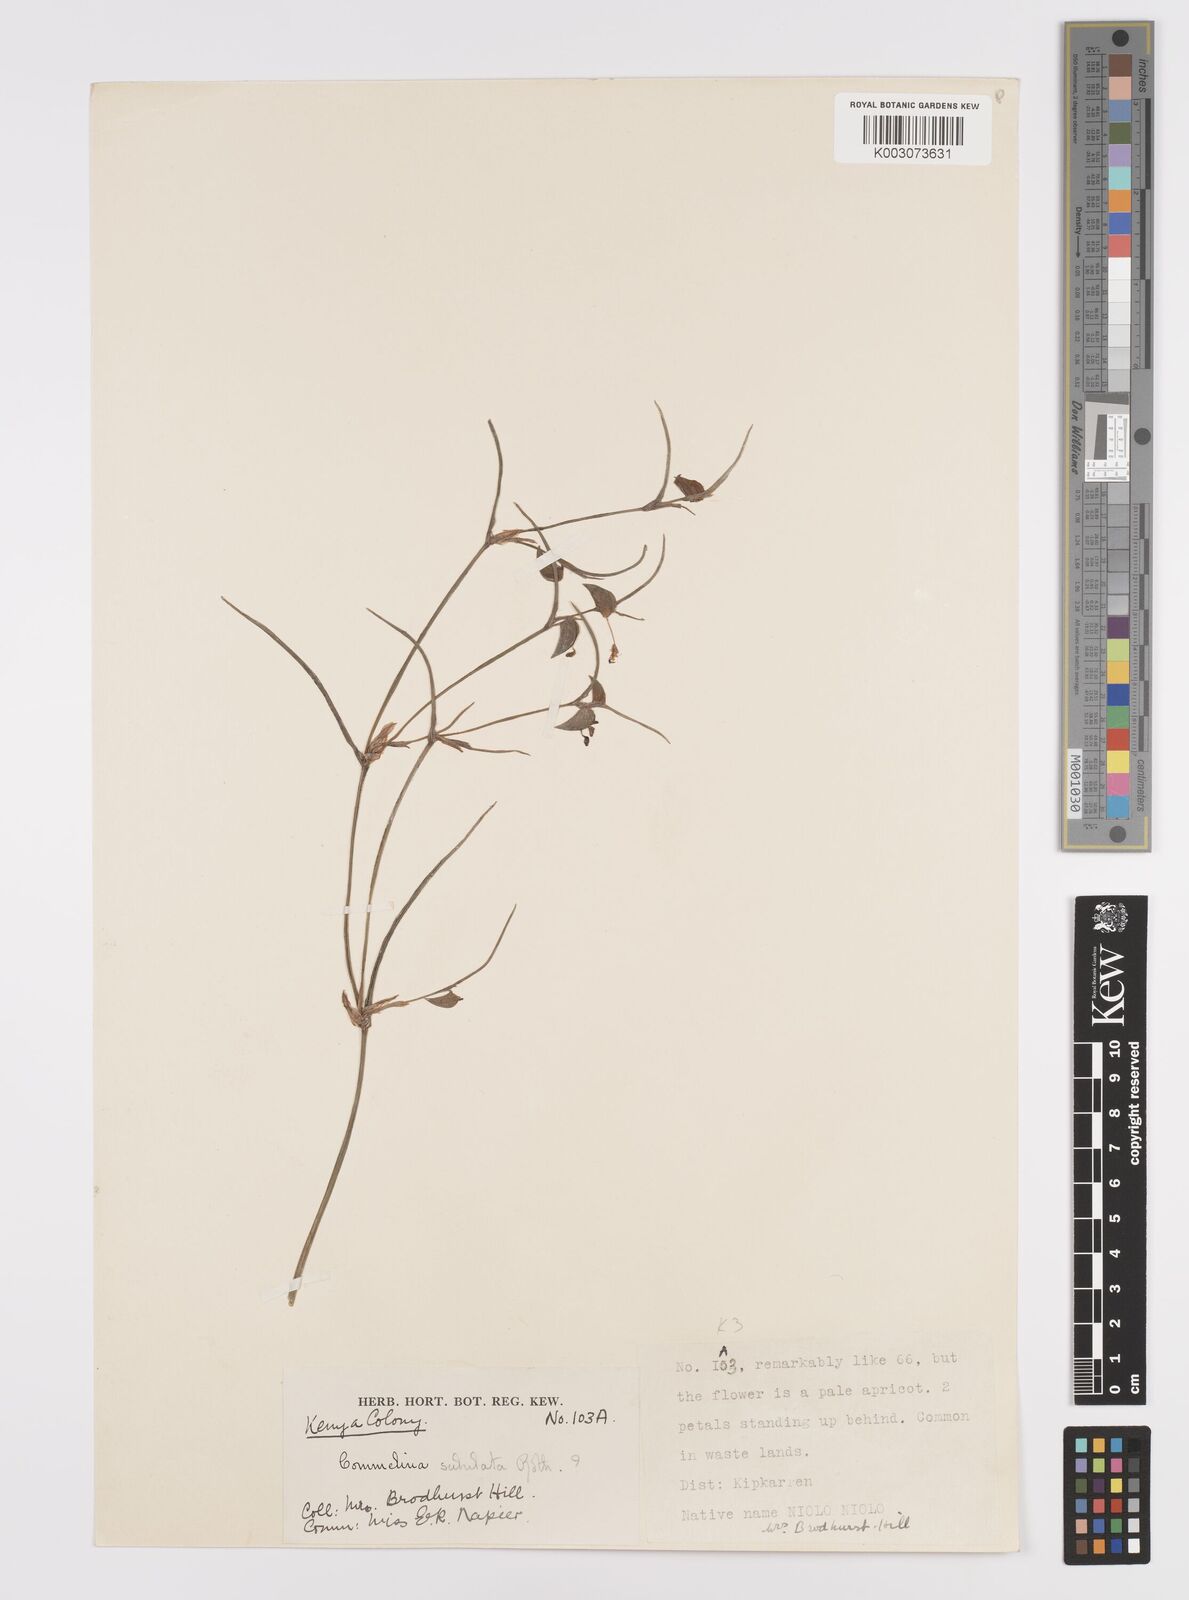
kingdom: Plantae
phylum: Tracheophyta
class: Liliopsida
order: Commelinales
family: Commelinaceae
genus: Commelina
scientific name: Commelina purpurea
